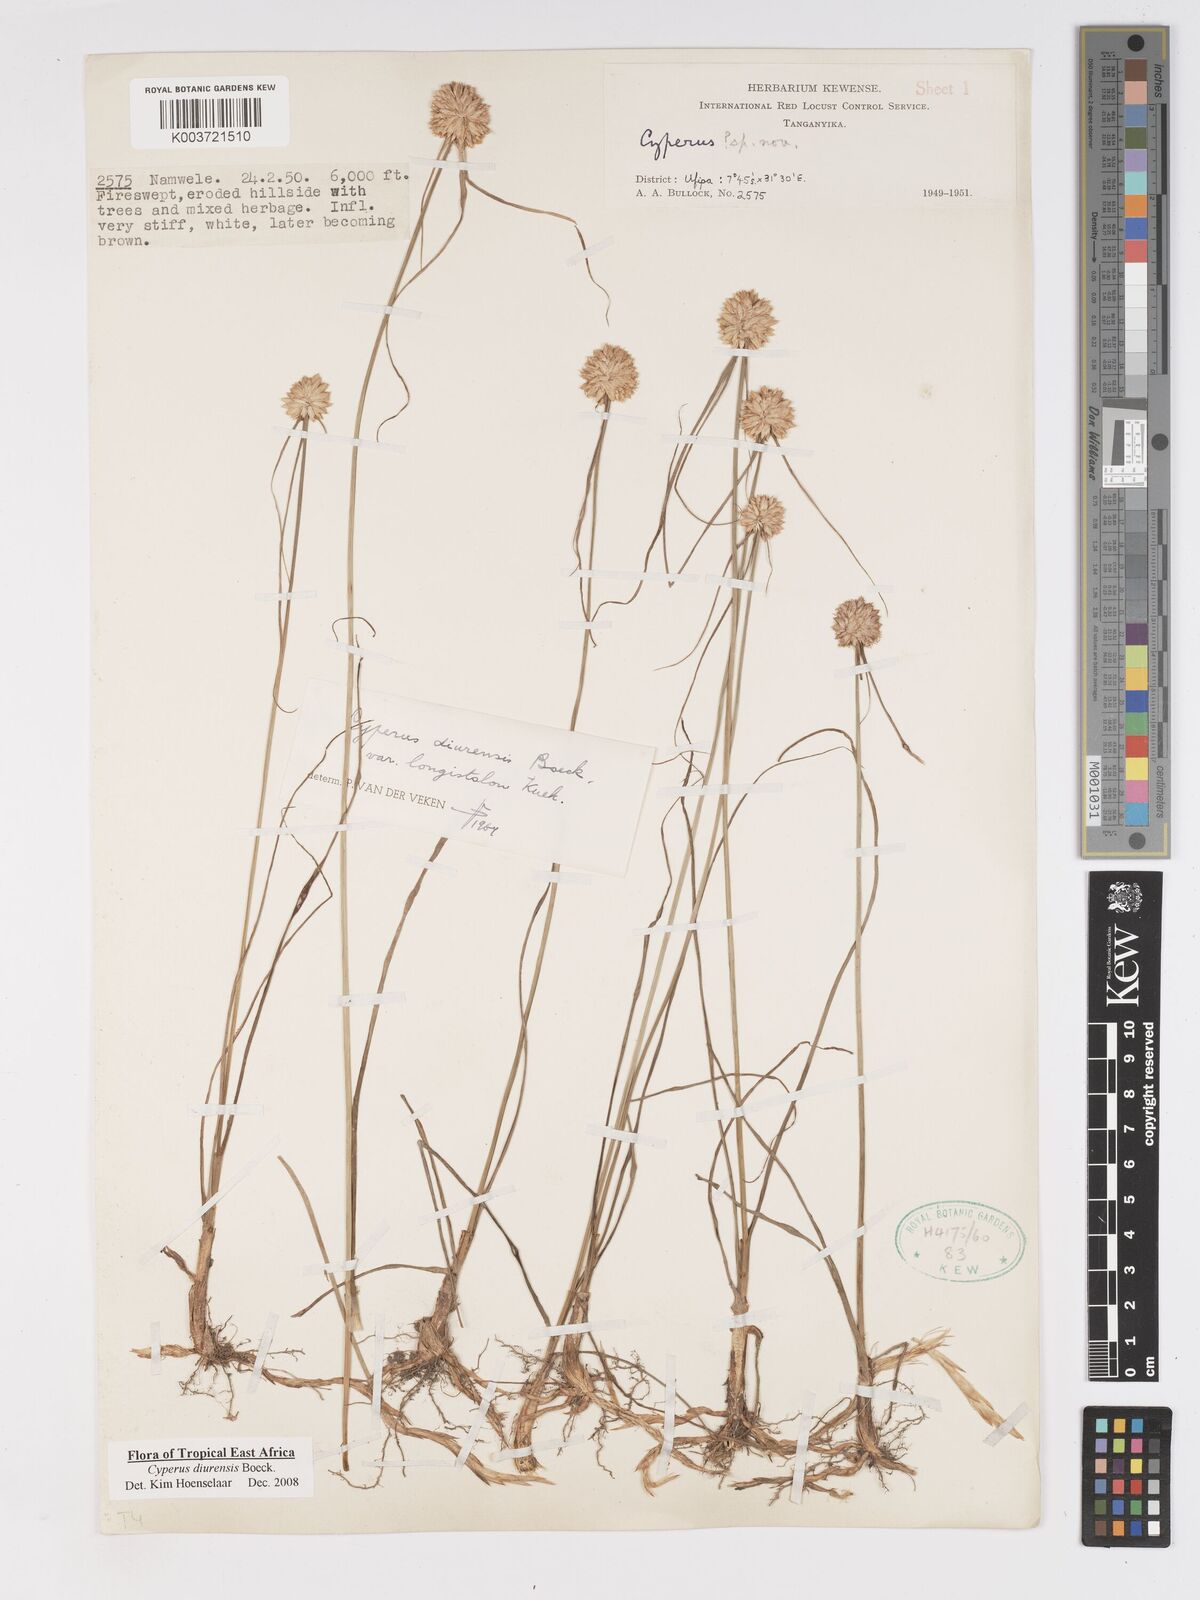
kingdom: Plantae
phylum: Tracheophyta
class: Liliopsida
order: Poales
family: Cyperaceae
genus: Cyperus
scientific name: Cyperus diurensis
